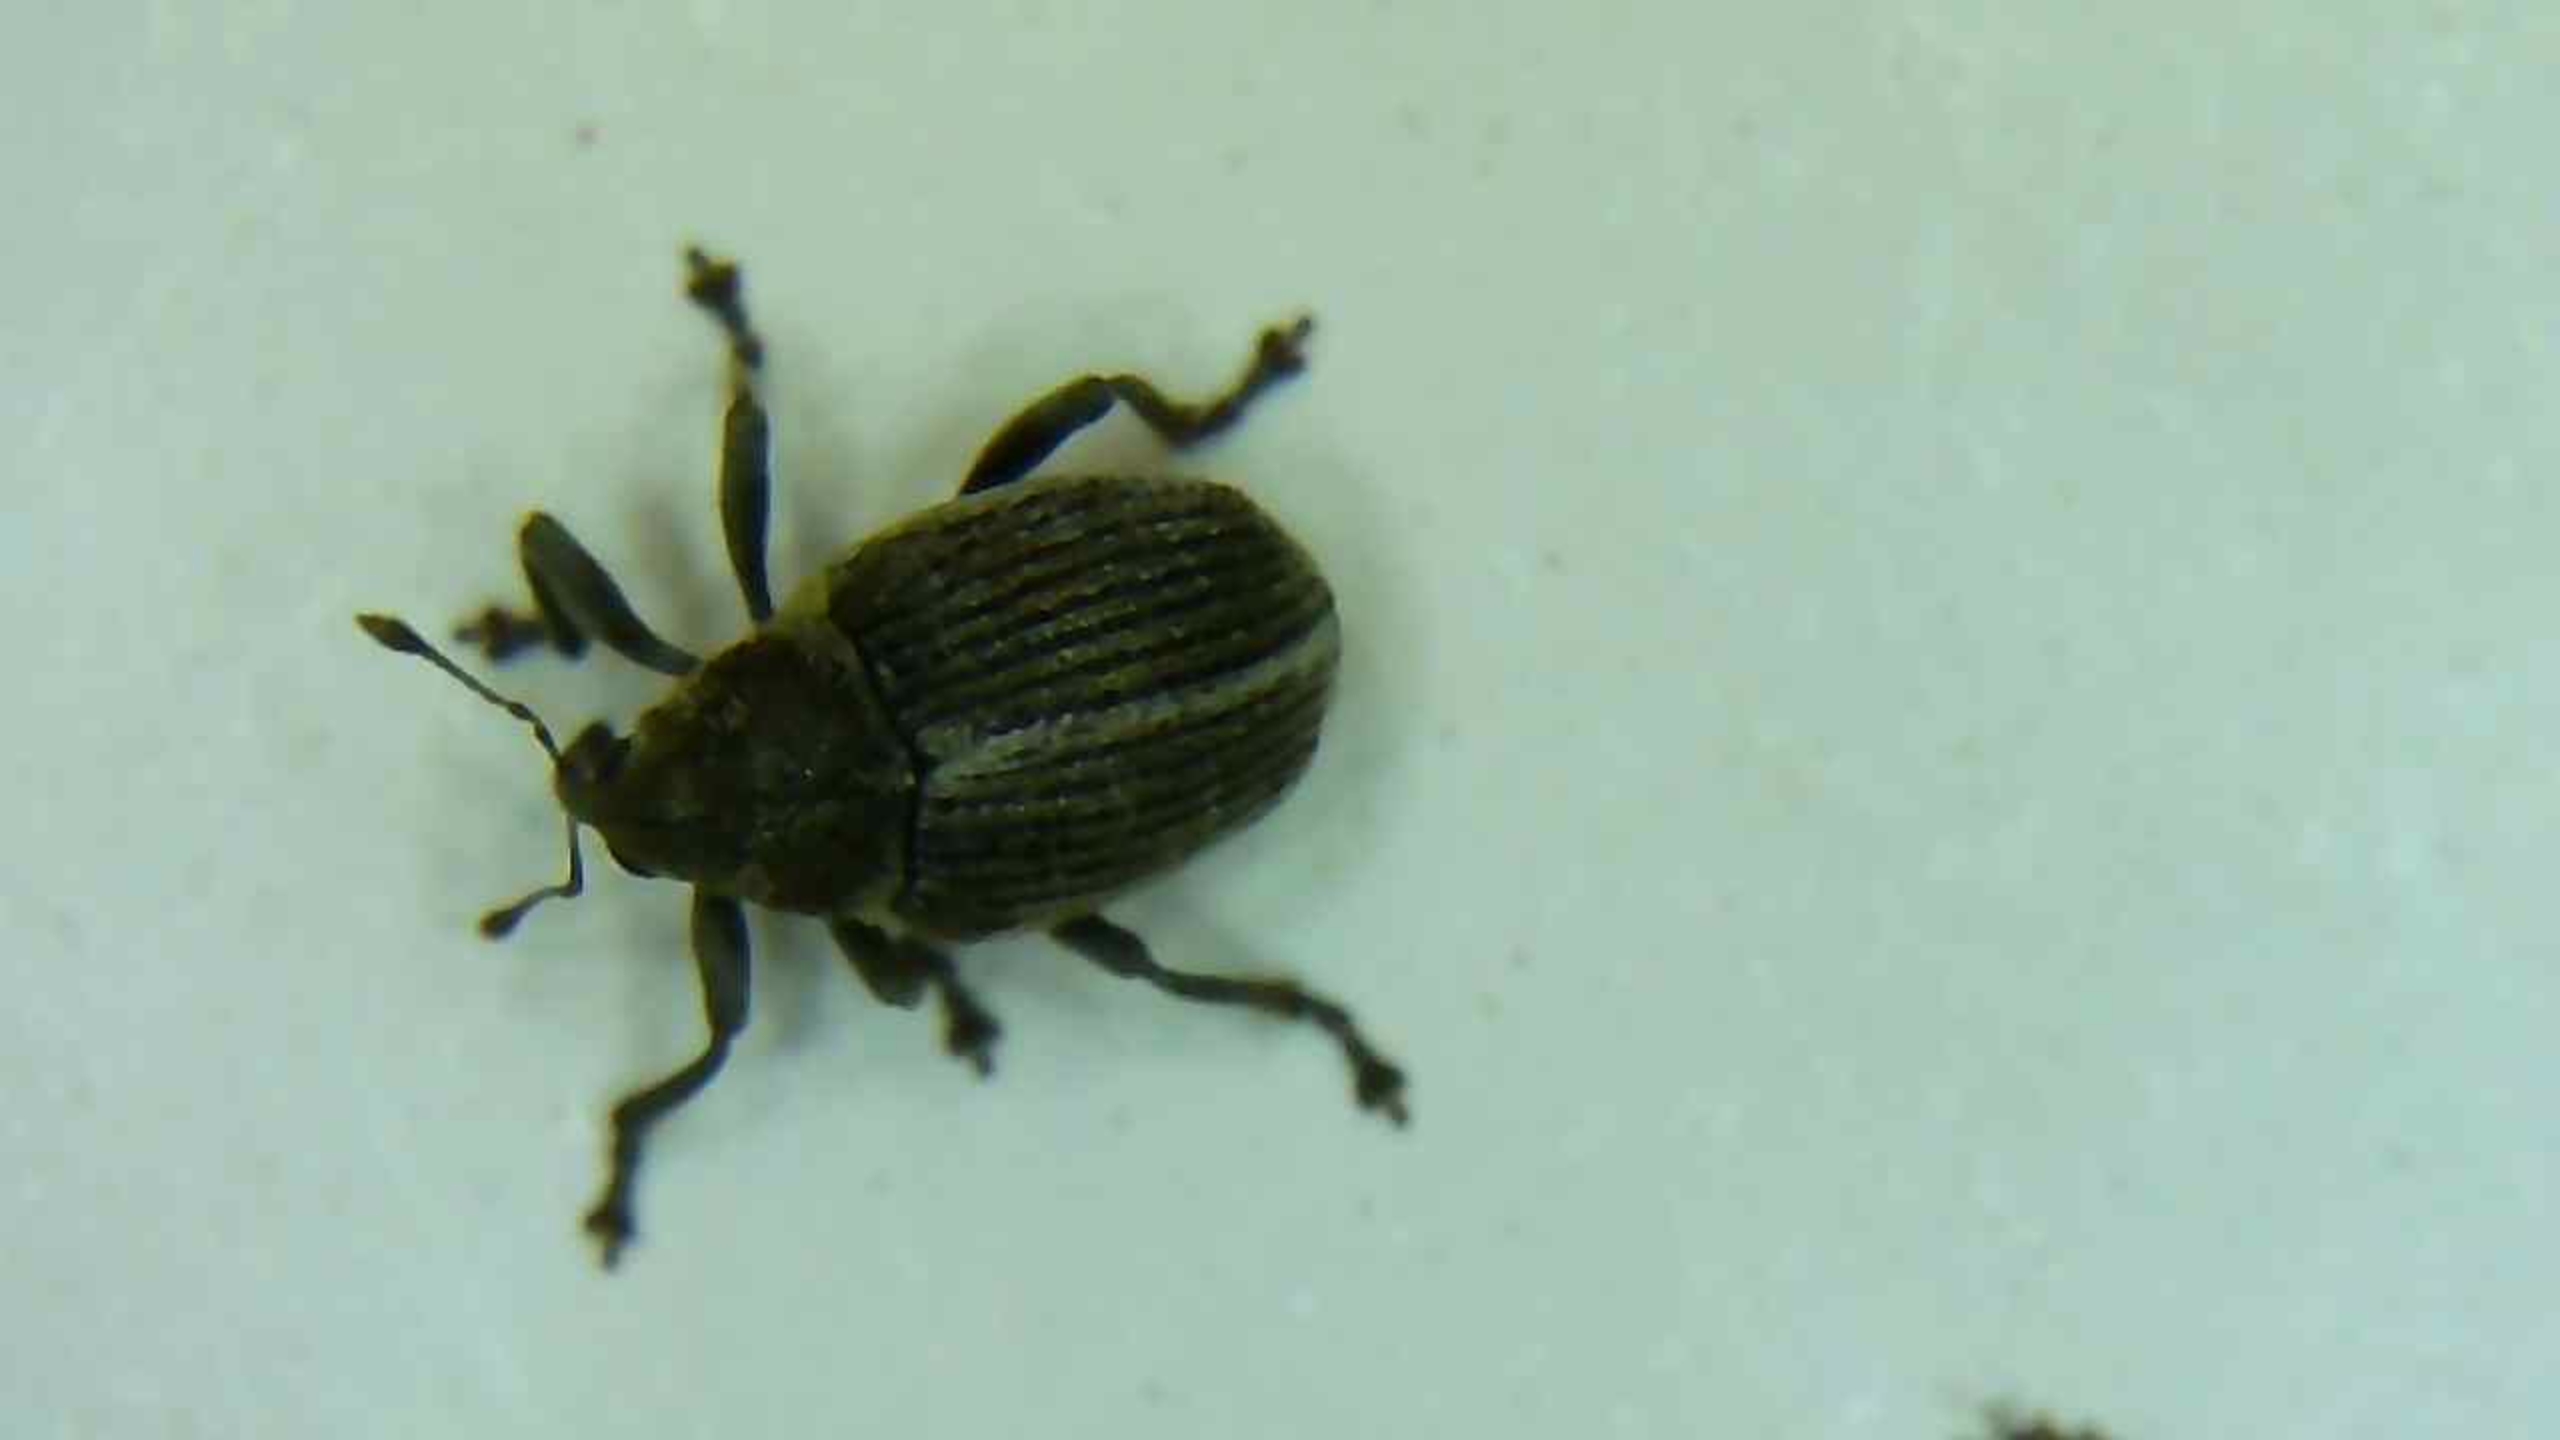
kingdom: Animalia
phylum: Arthropoda
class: Insecta
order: Coleoptera
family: Curculionidae
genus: Ceutorhynchus
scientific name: Ceutorhynchus typhae
